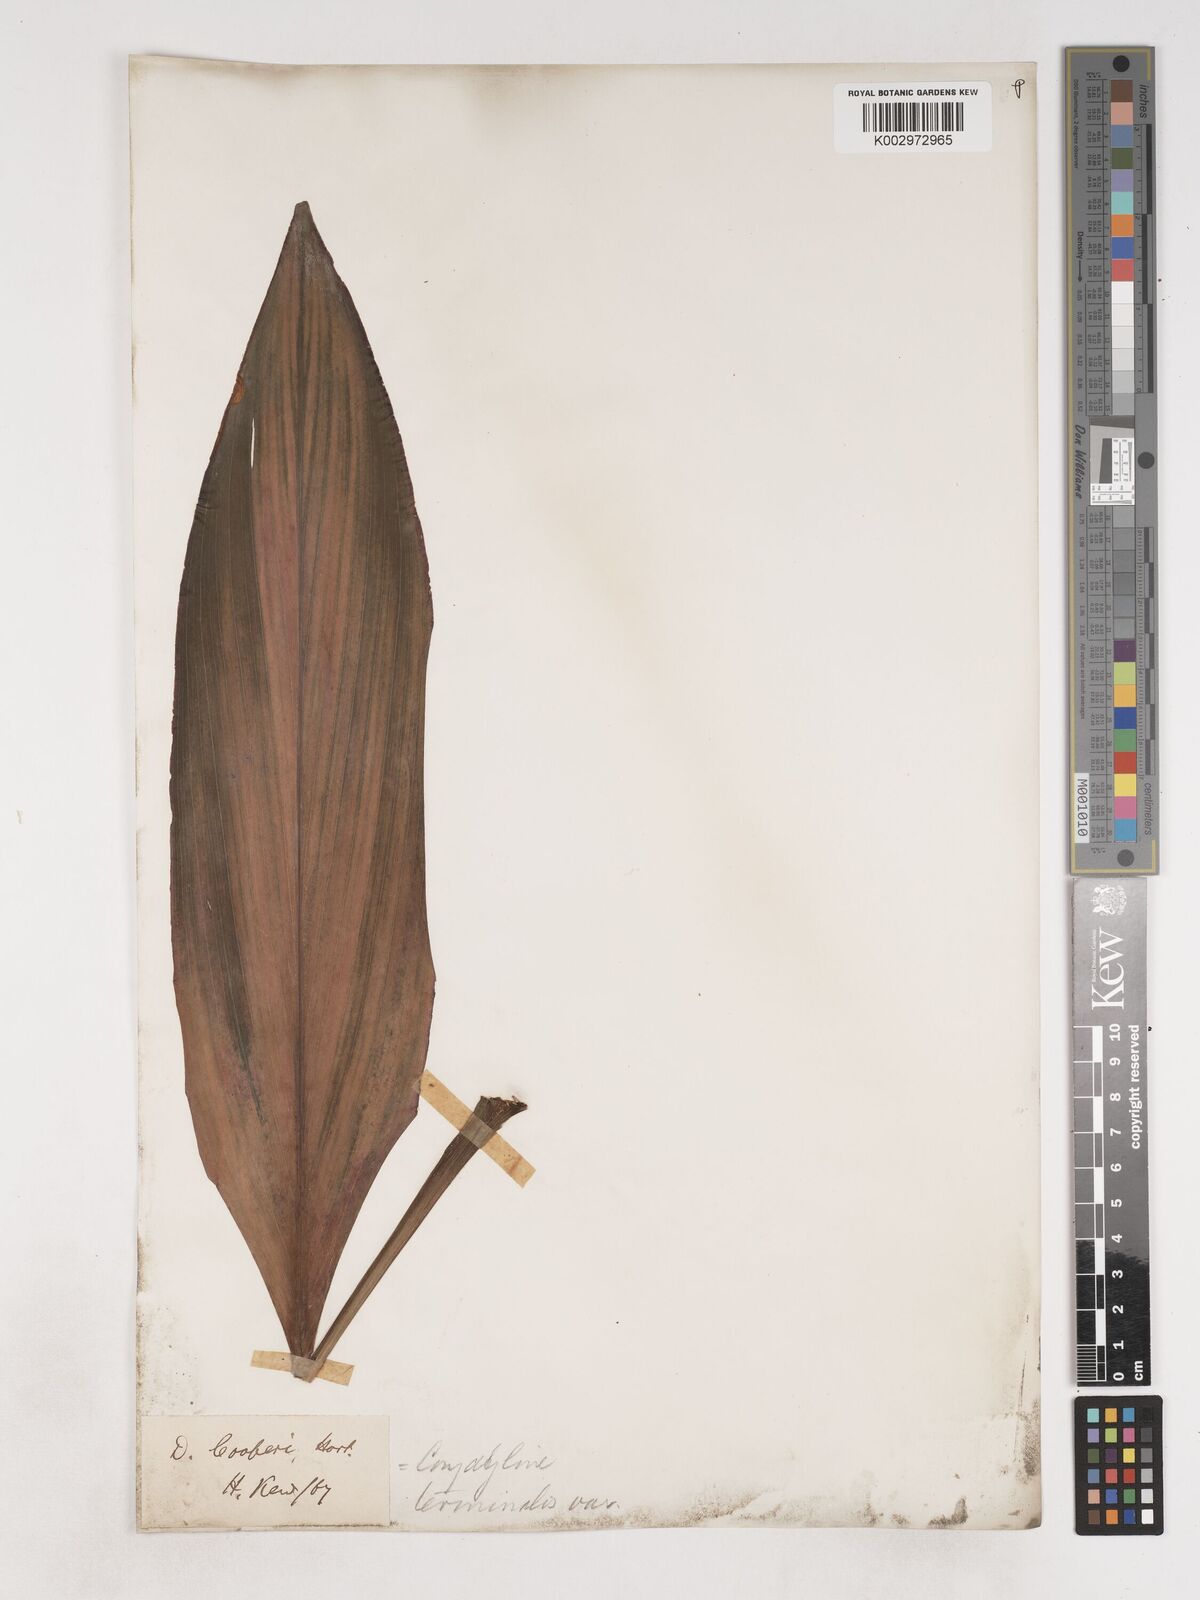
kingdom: Plantae
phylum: Tracheophyta
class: Liliopsida
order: Asparagales
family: Asparagaceae
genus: Cordyline
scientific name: Cordyline fruticosa
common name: Good-luck-plant
